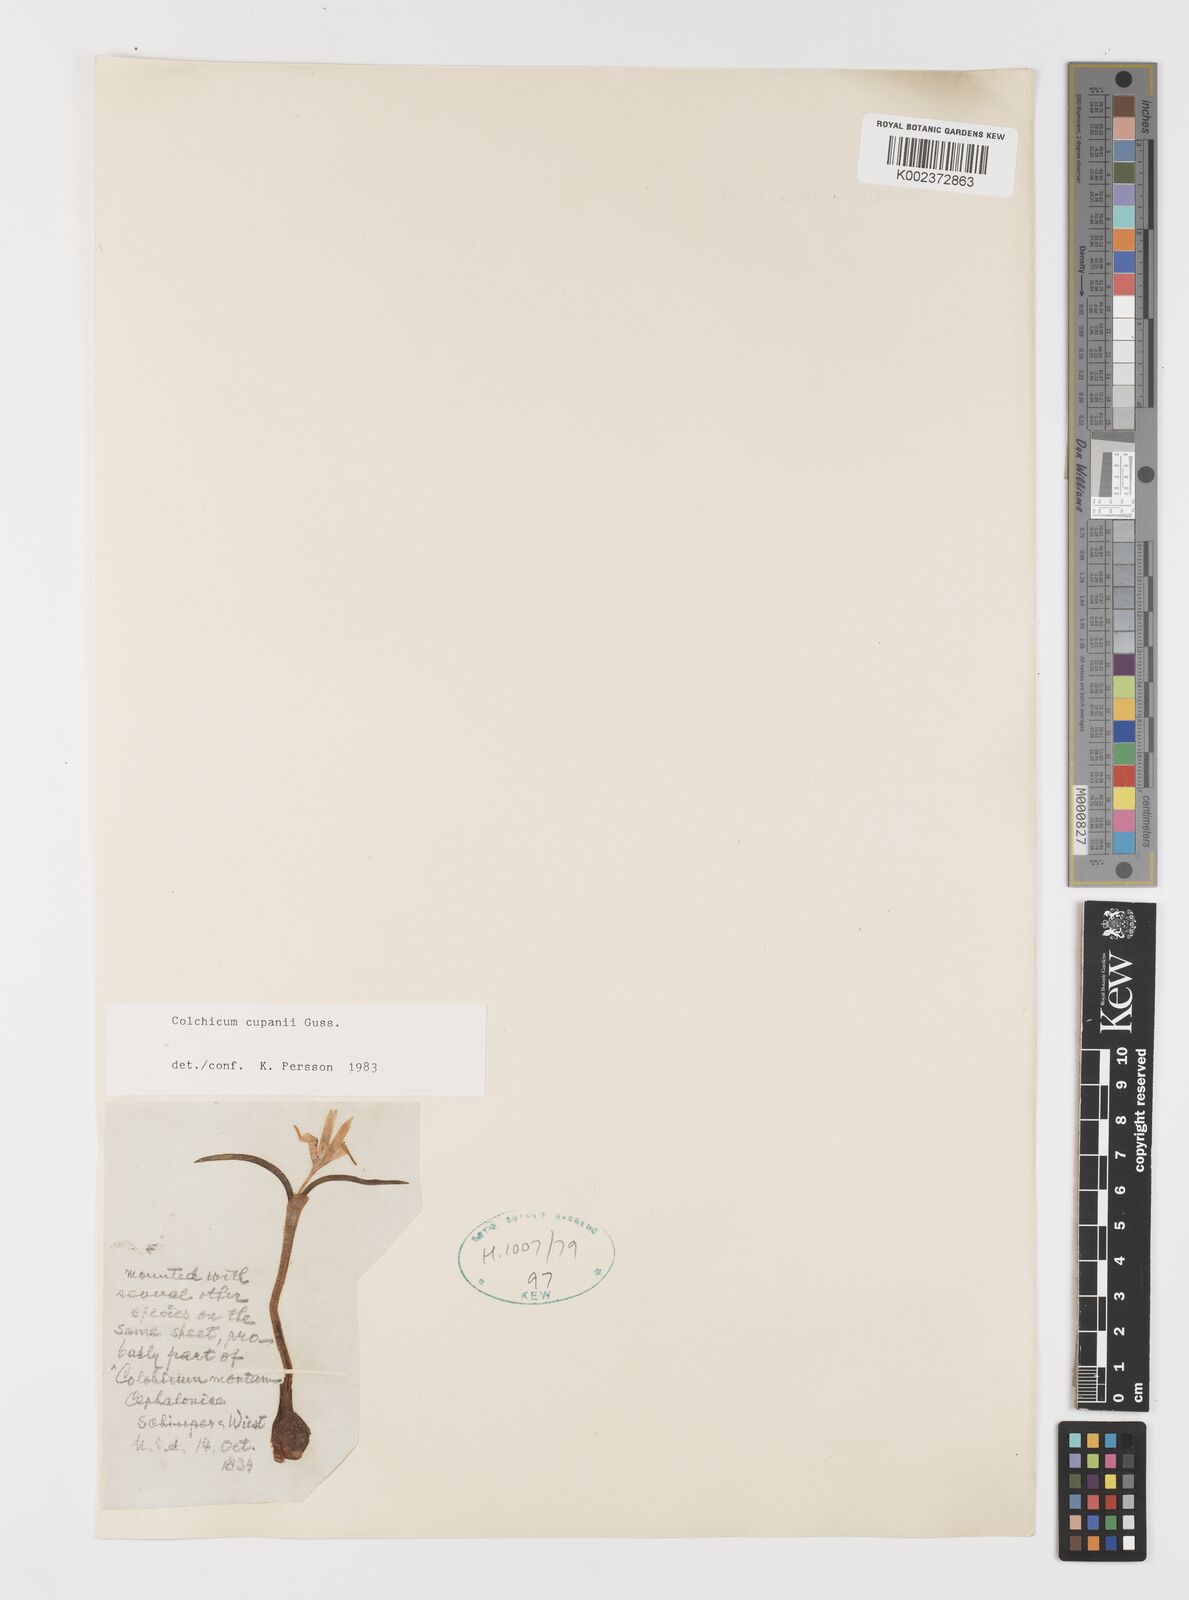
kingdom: Plantae
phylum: Tracheophyta
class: Liliopsida
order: Liliales
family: Colchicaceae
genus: Colchicum
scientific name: Colchicum cupanii
